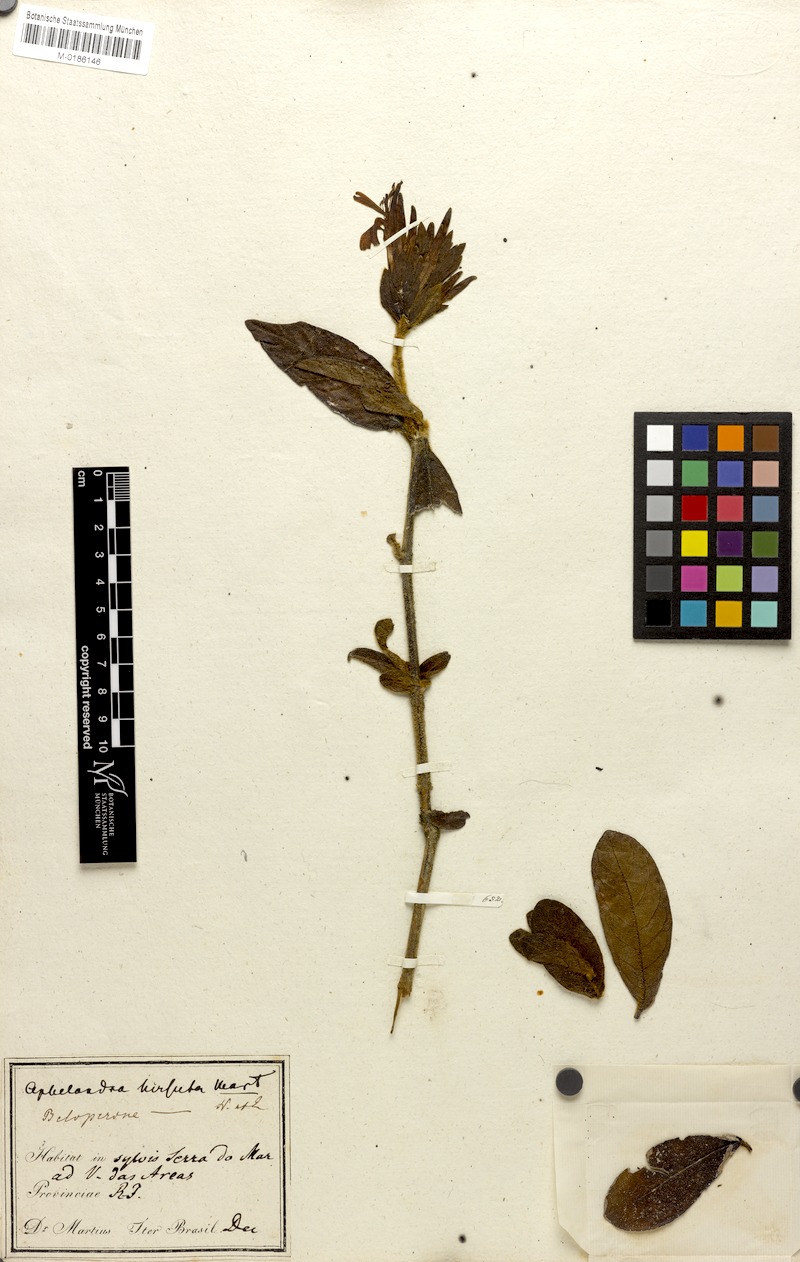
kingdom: Plantae
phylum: Tracheophyta
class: Magnoliopsida
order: Lamiales
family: Acanthaceae
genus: Justicia
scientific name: Justicia pohliana
